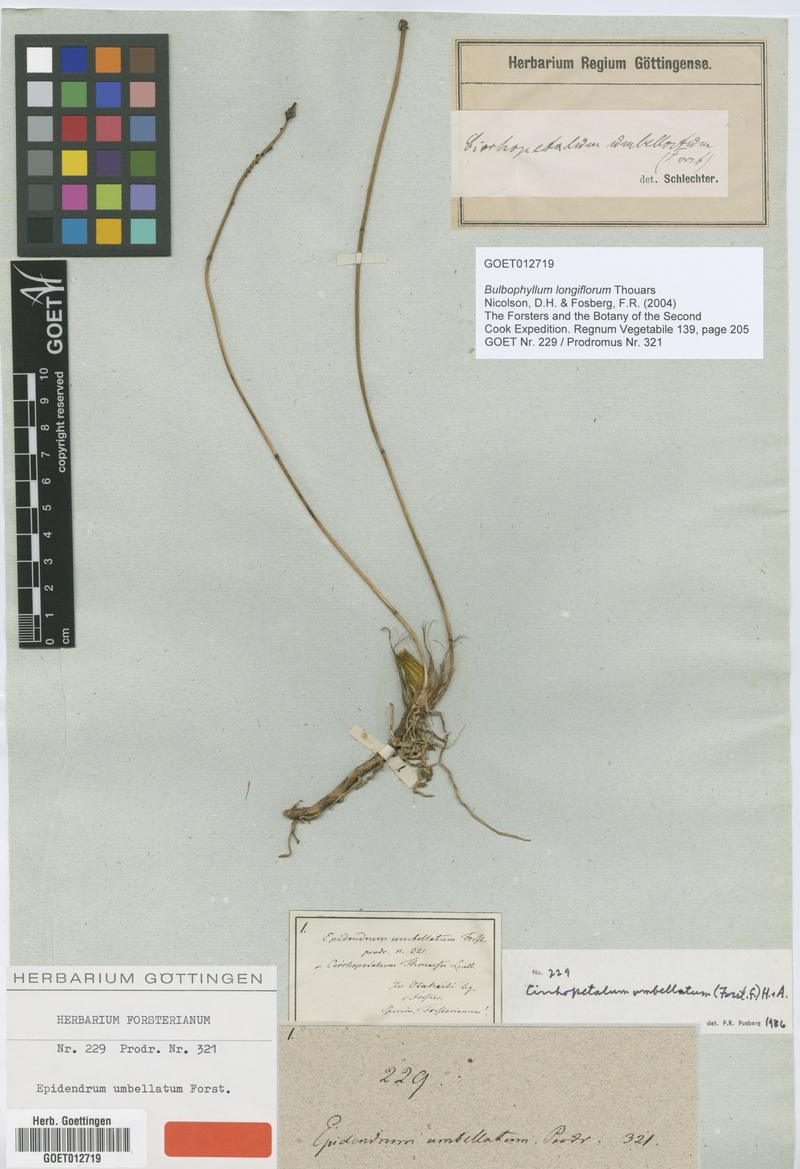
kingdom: Plantae
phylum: Tracheophyta
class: Liliopsida
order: Asparagales
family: Orchidaceae
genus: Bulbophyllum
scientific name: Bulbophyllum longiflorum
